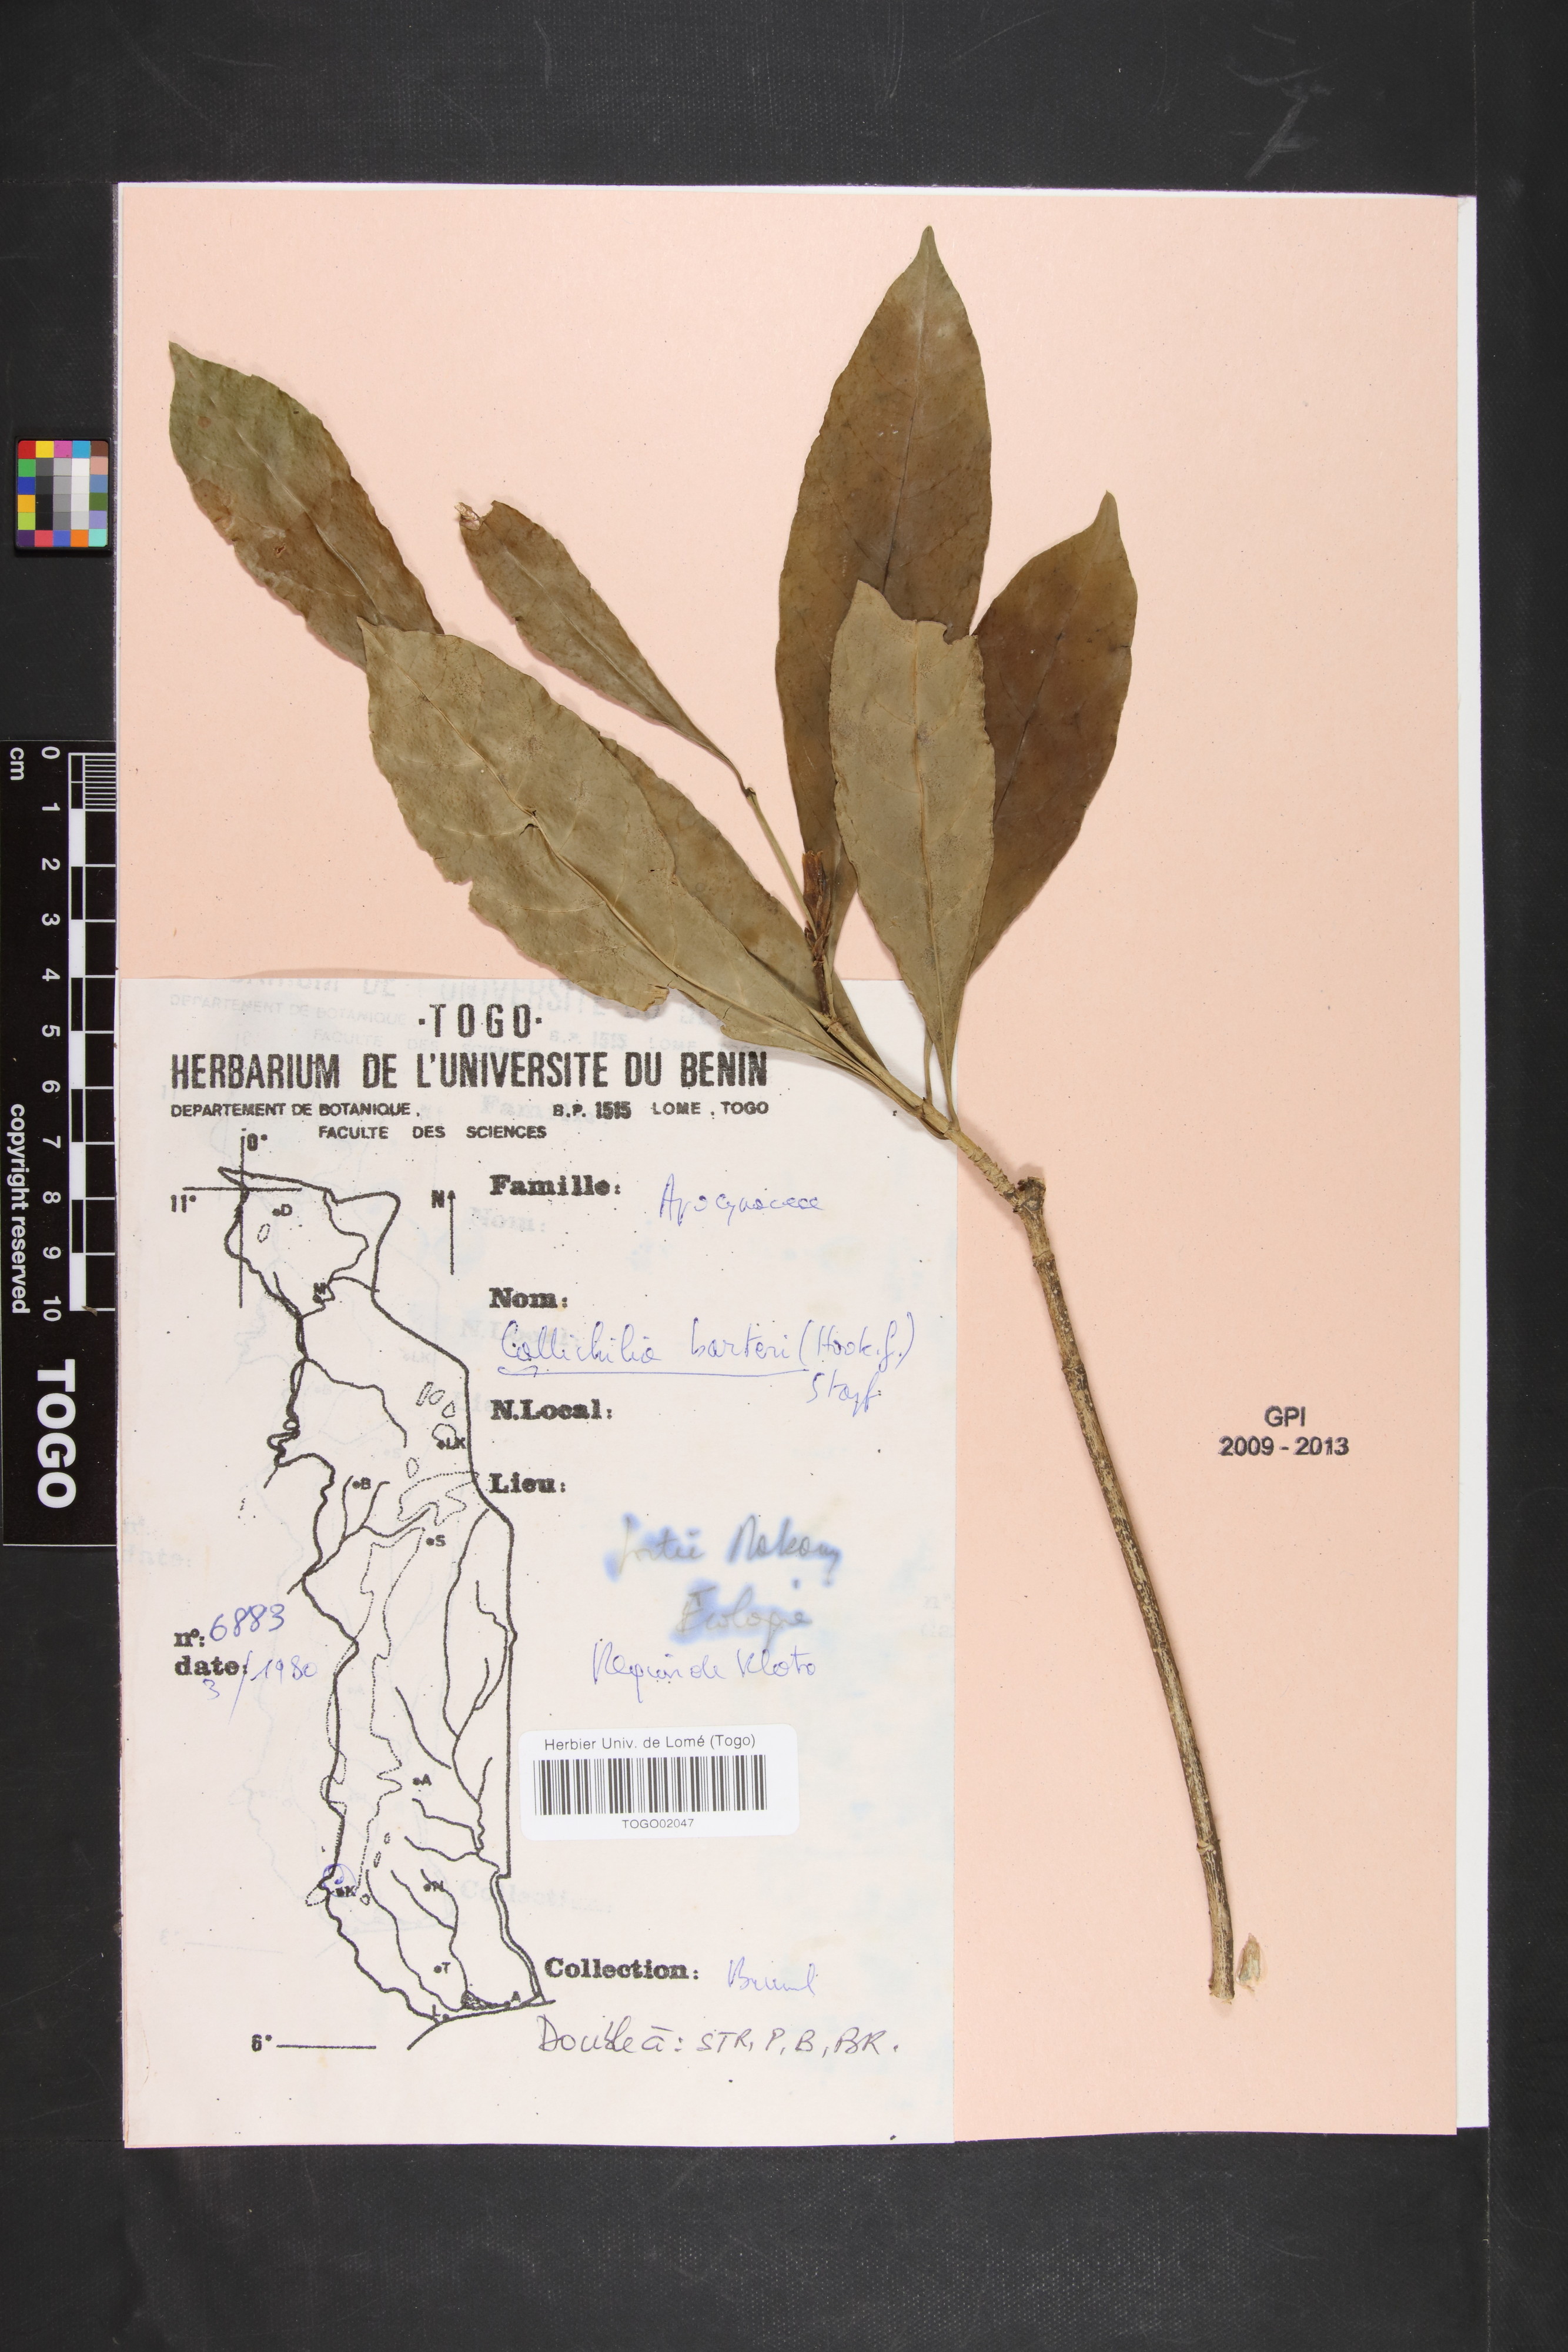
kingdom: Plantae
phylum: Tracheophyta
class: Magnoliopsida
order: Gentianales
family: Apocynaceae
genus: Callichilia
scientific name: Callichilia barteri
